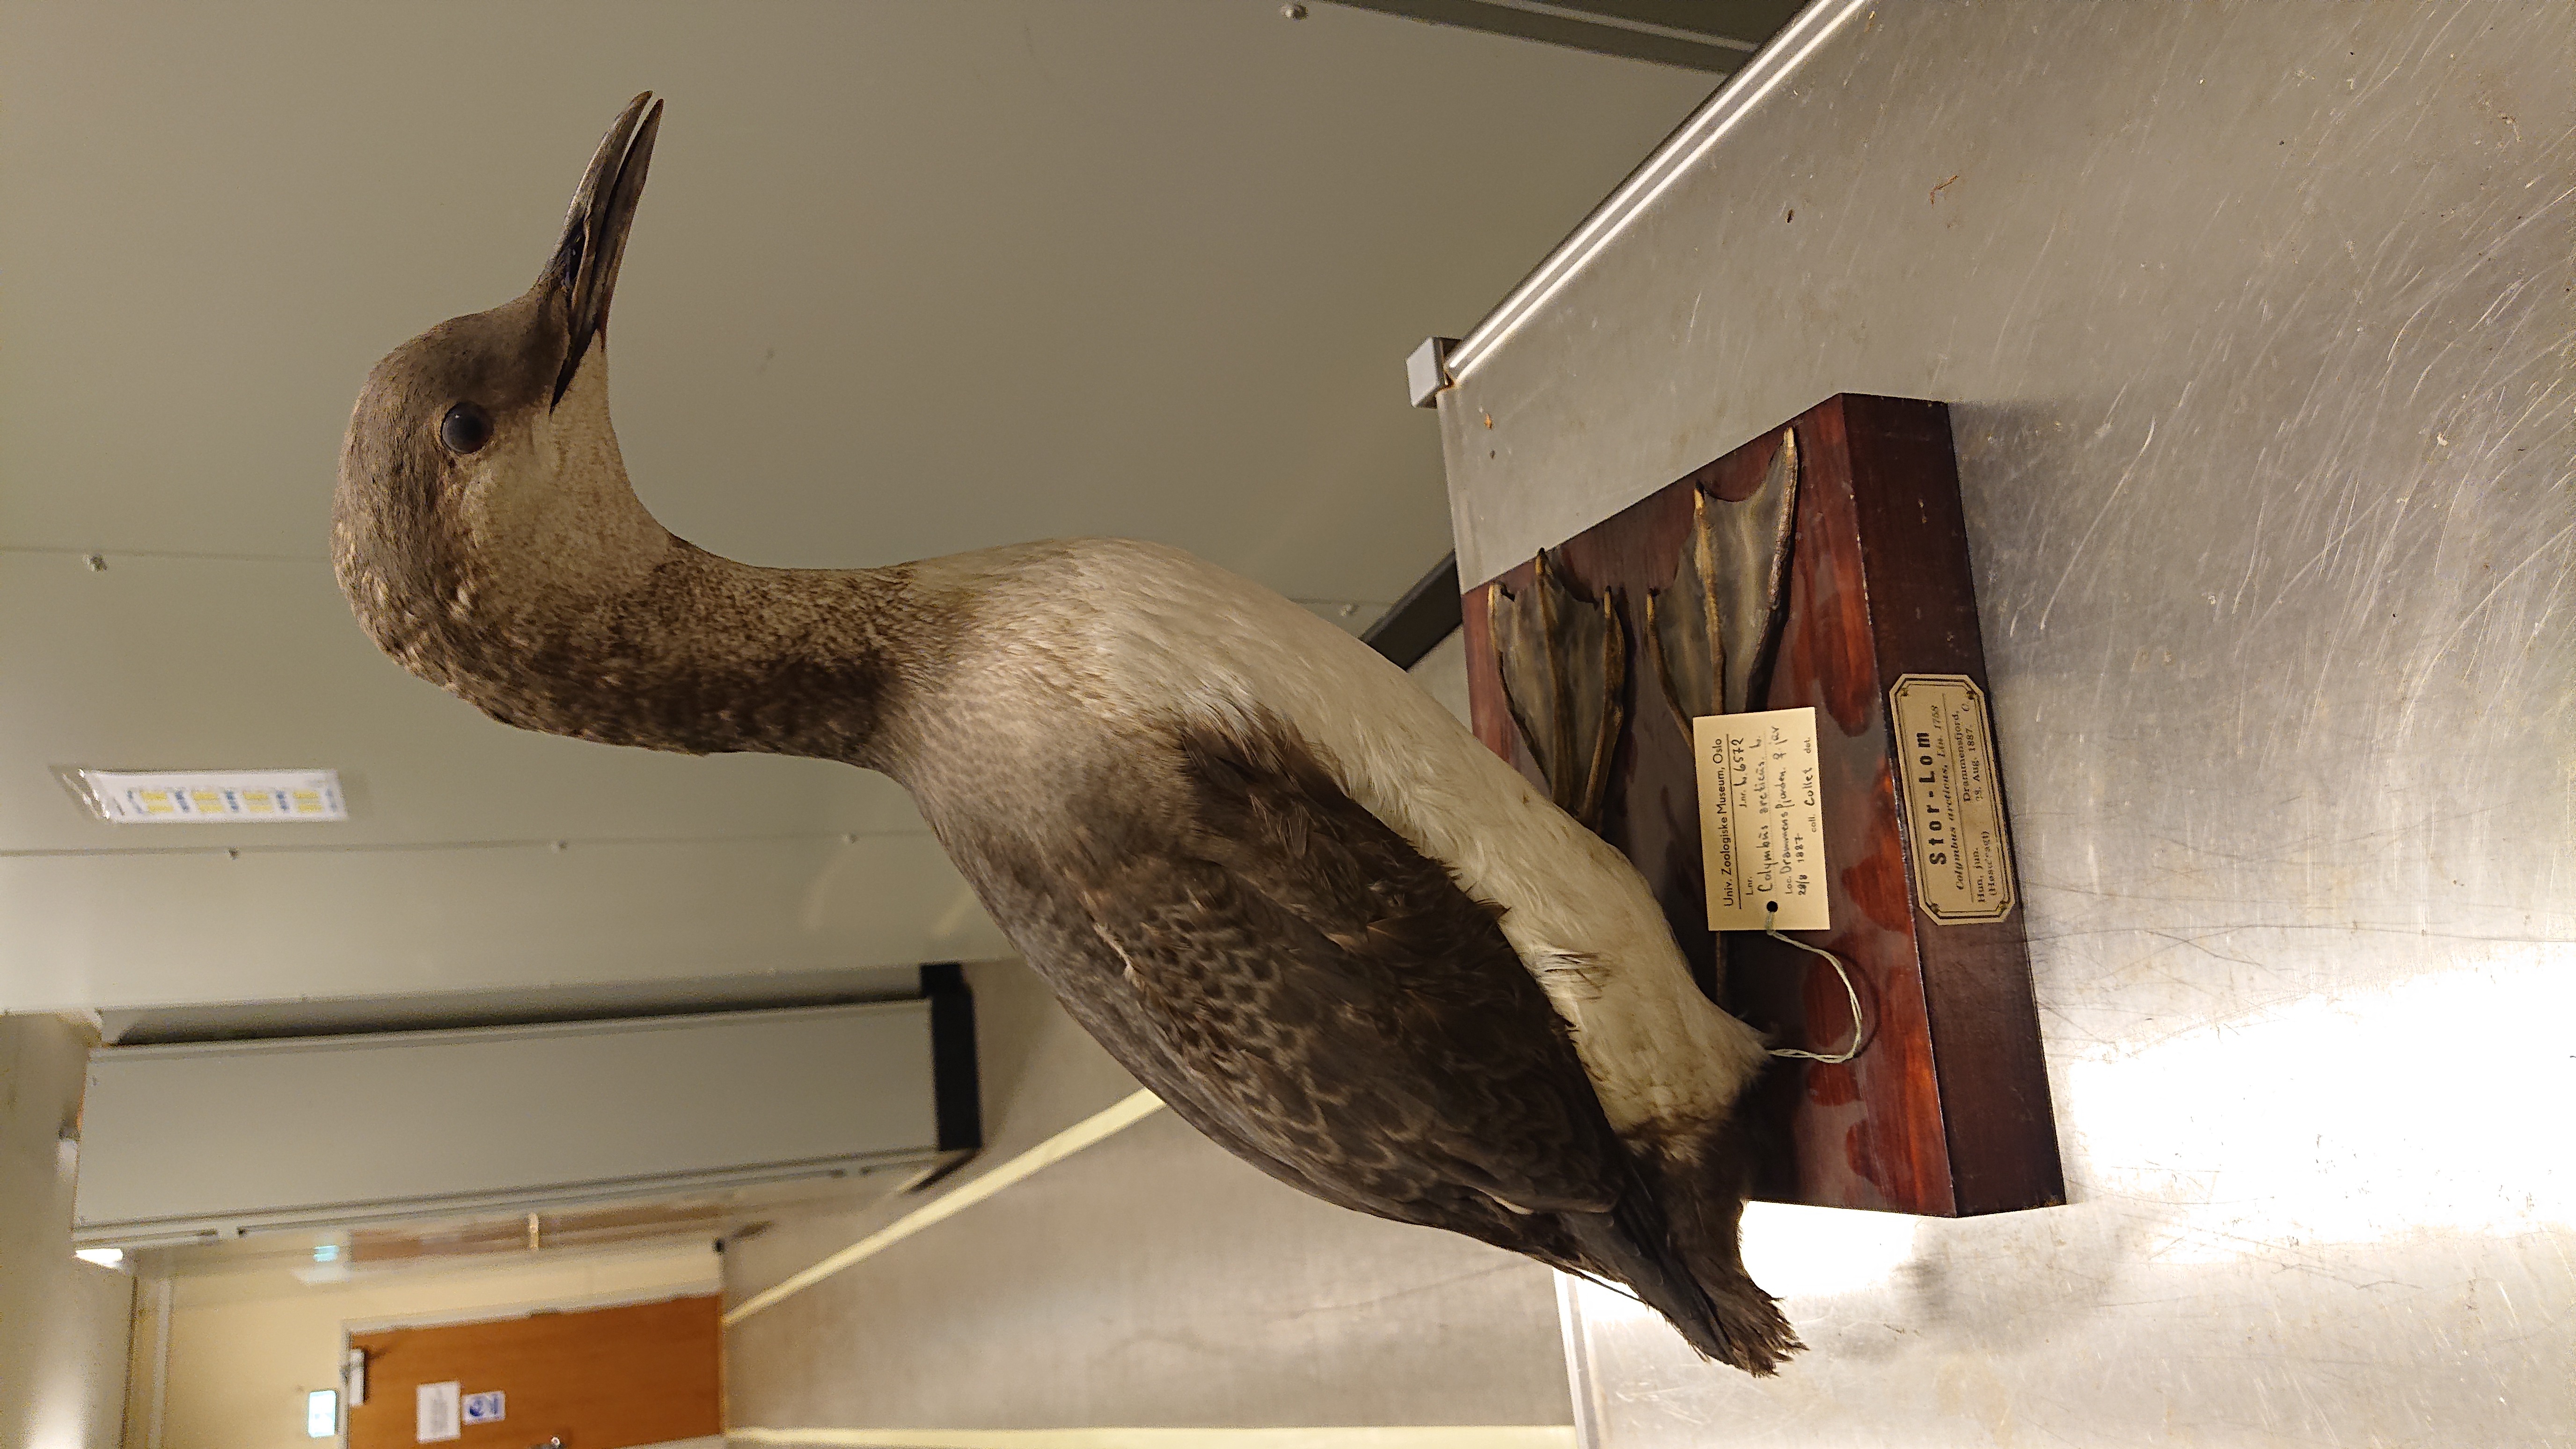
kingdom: Animalia
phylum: Chordata
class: Aves
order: Gaviiformes
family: Gaviidae
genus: Gavia
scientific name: Gavia arctica
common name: Black-throated loon
